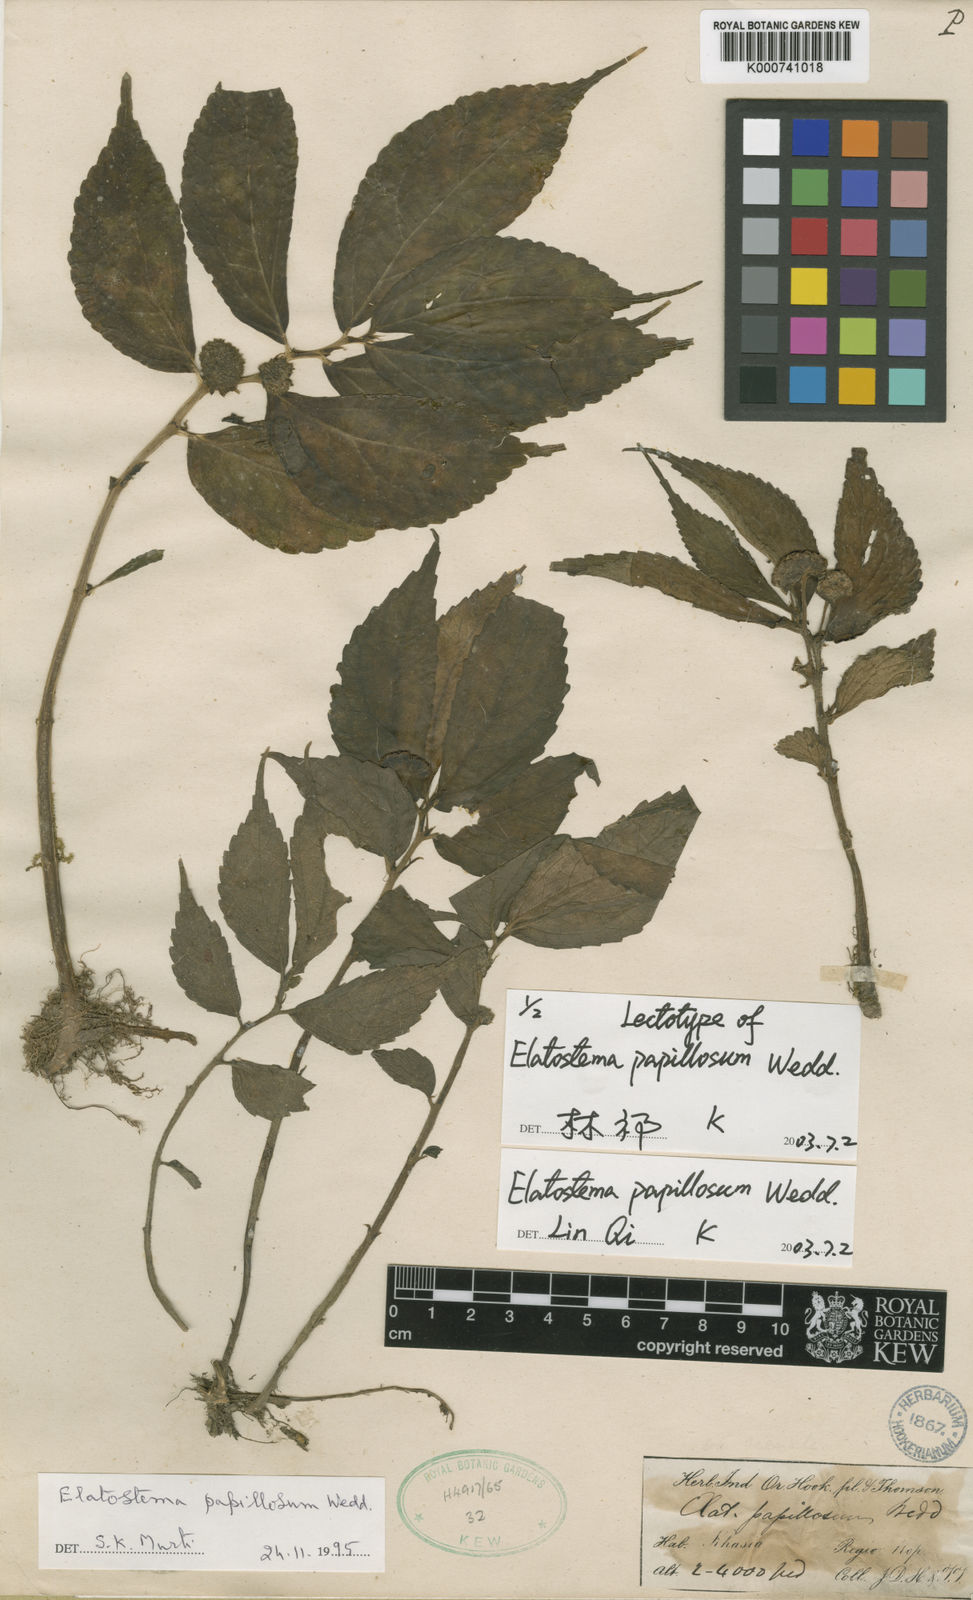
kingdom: Plantae
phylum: Tracheophyta
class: Magnoliopsida
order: Rosales
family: Urticaceae
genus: Elatostema
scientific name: Elatostema papillosum
